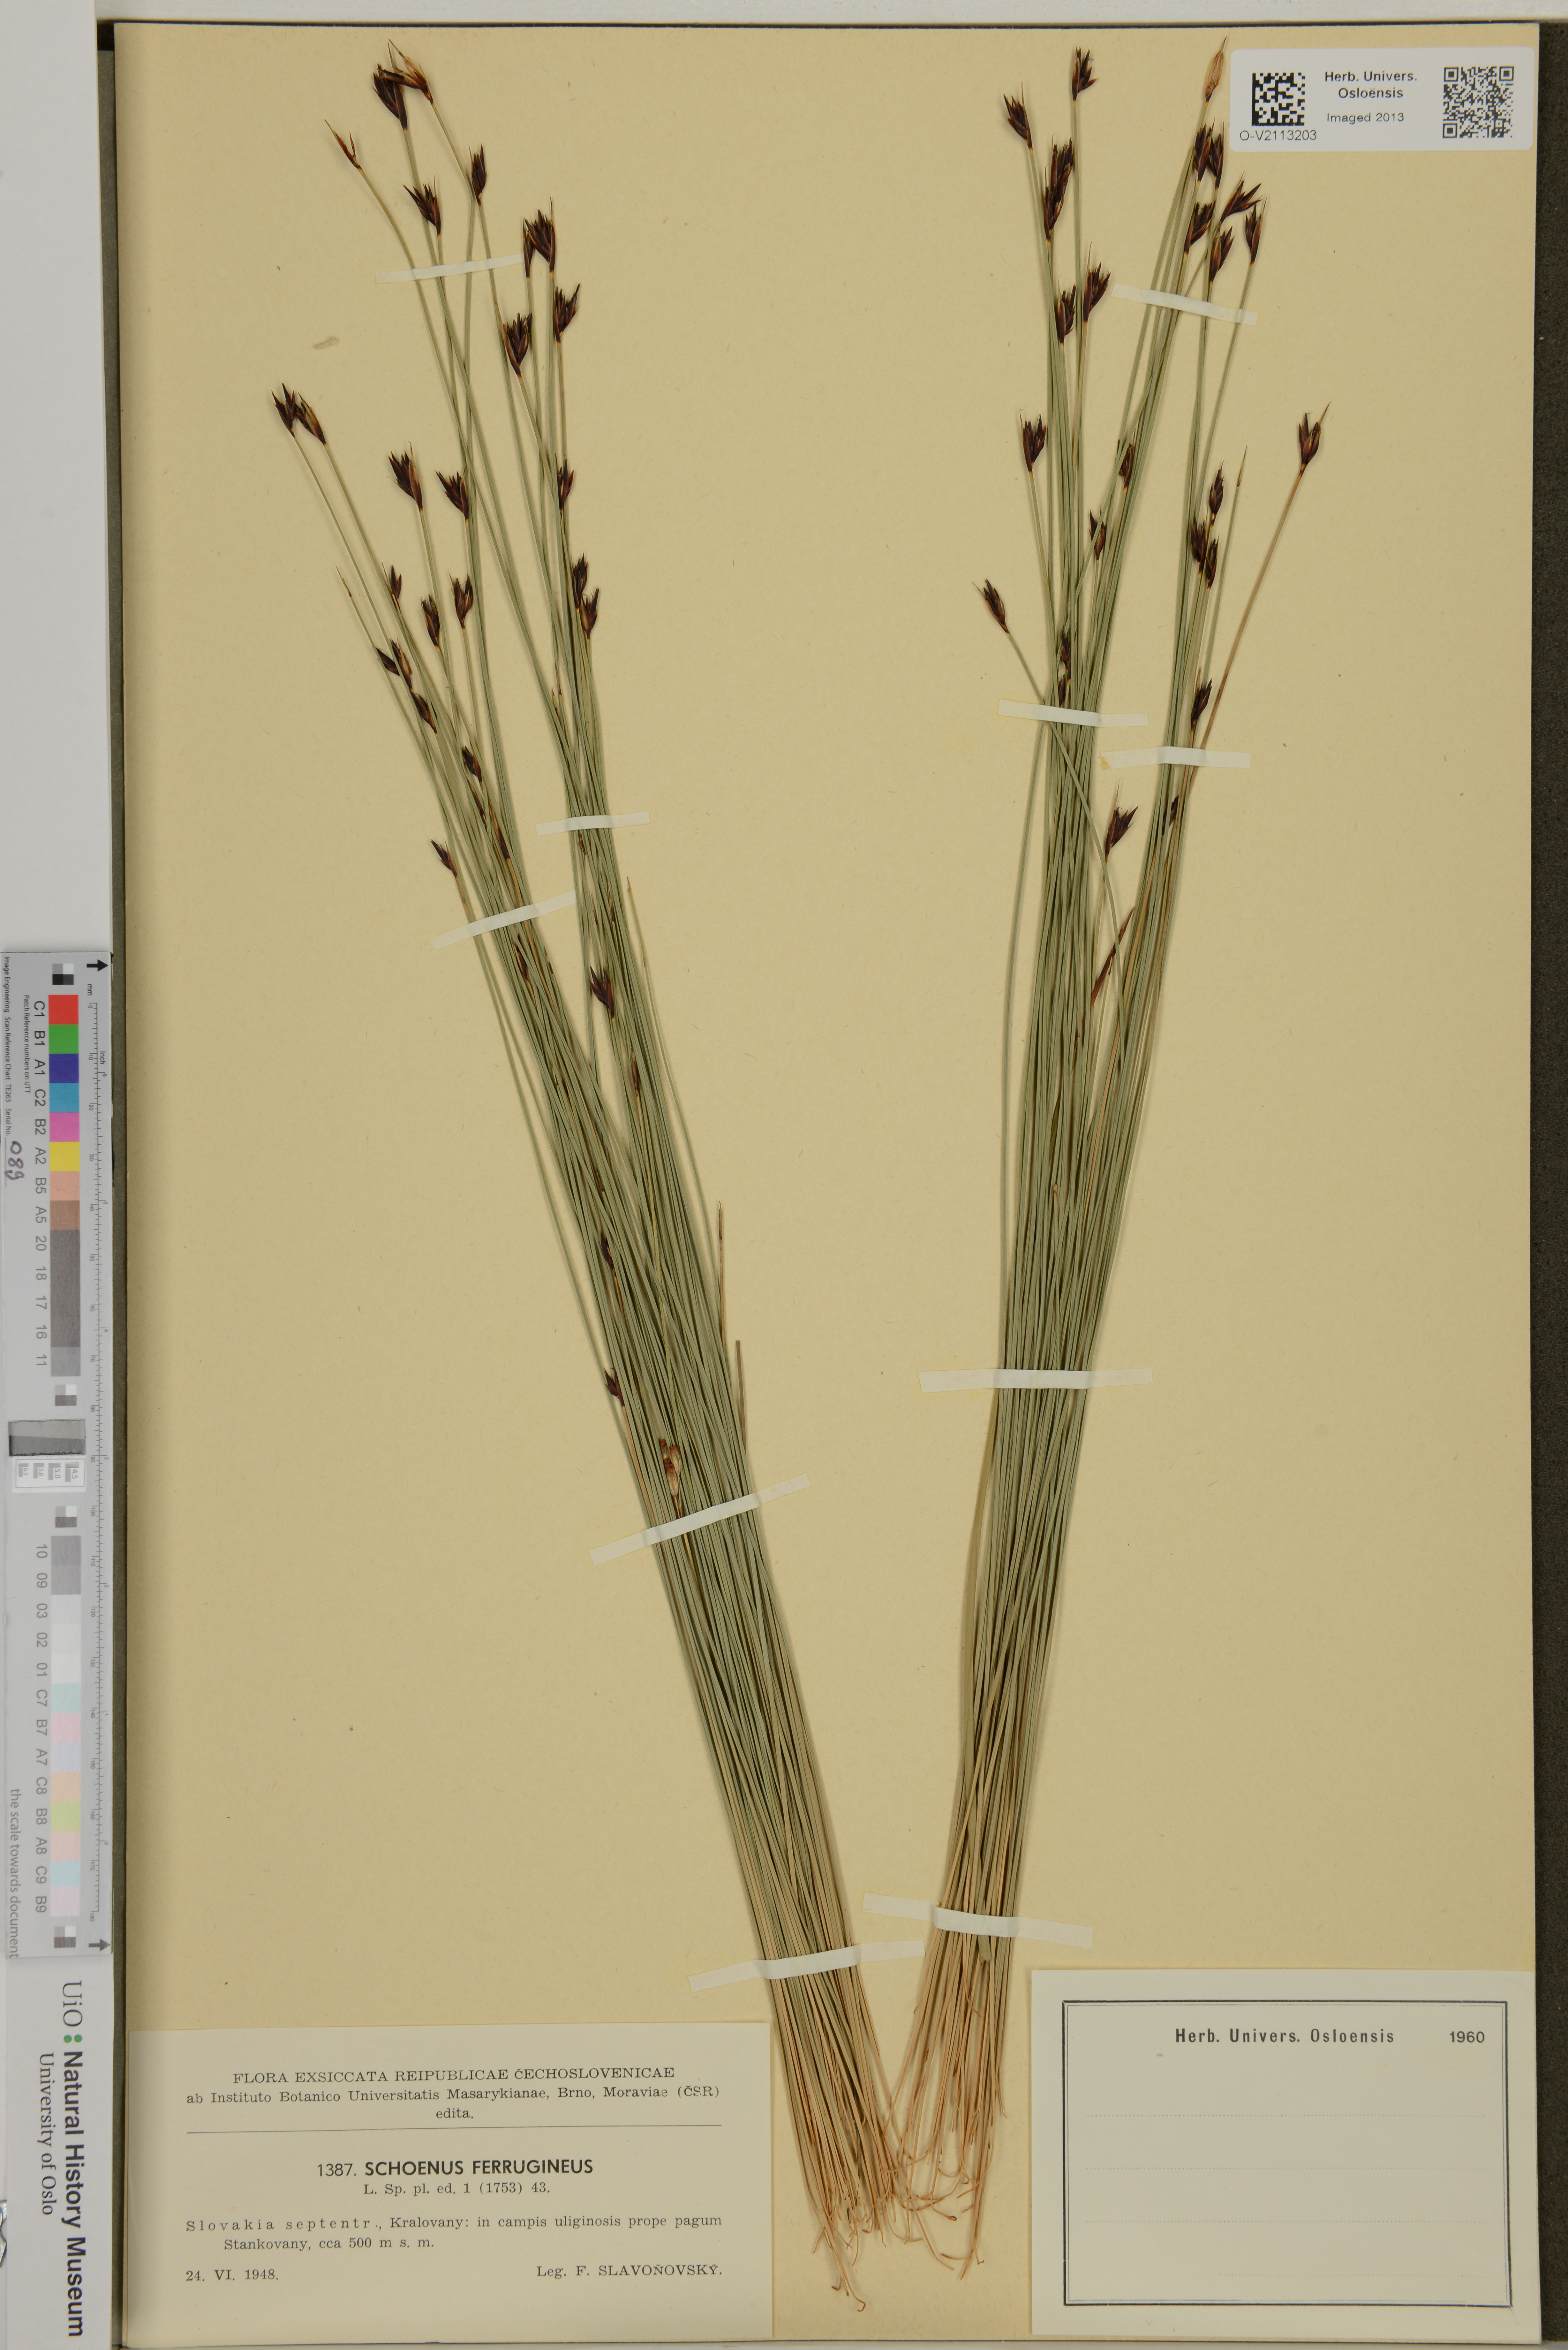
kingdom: Plantae
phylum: Tracheophyta
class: Liliopsida
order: Poales
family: Cyperaceae
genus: Schoenus
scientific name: Schoenus ferrugineus
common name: Brown bog-rush
